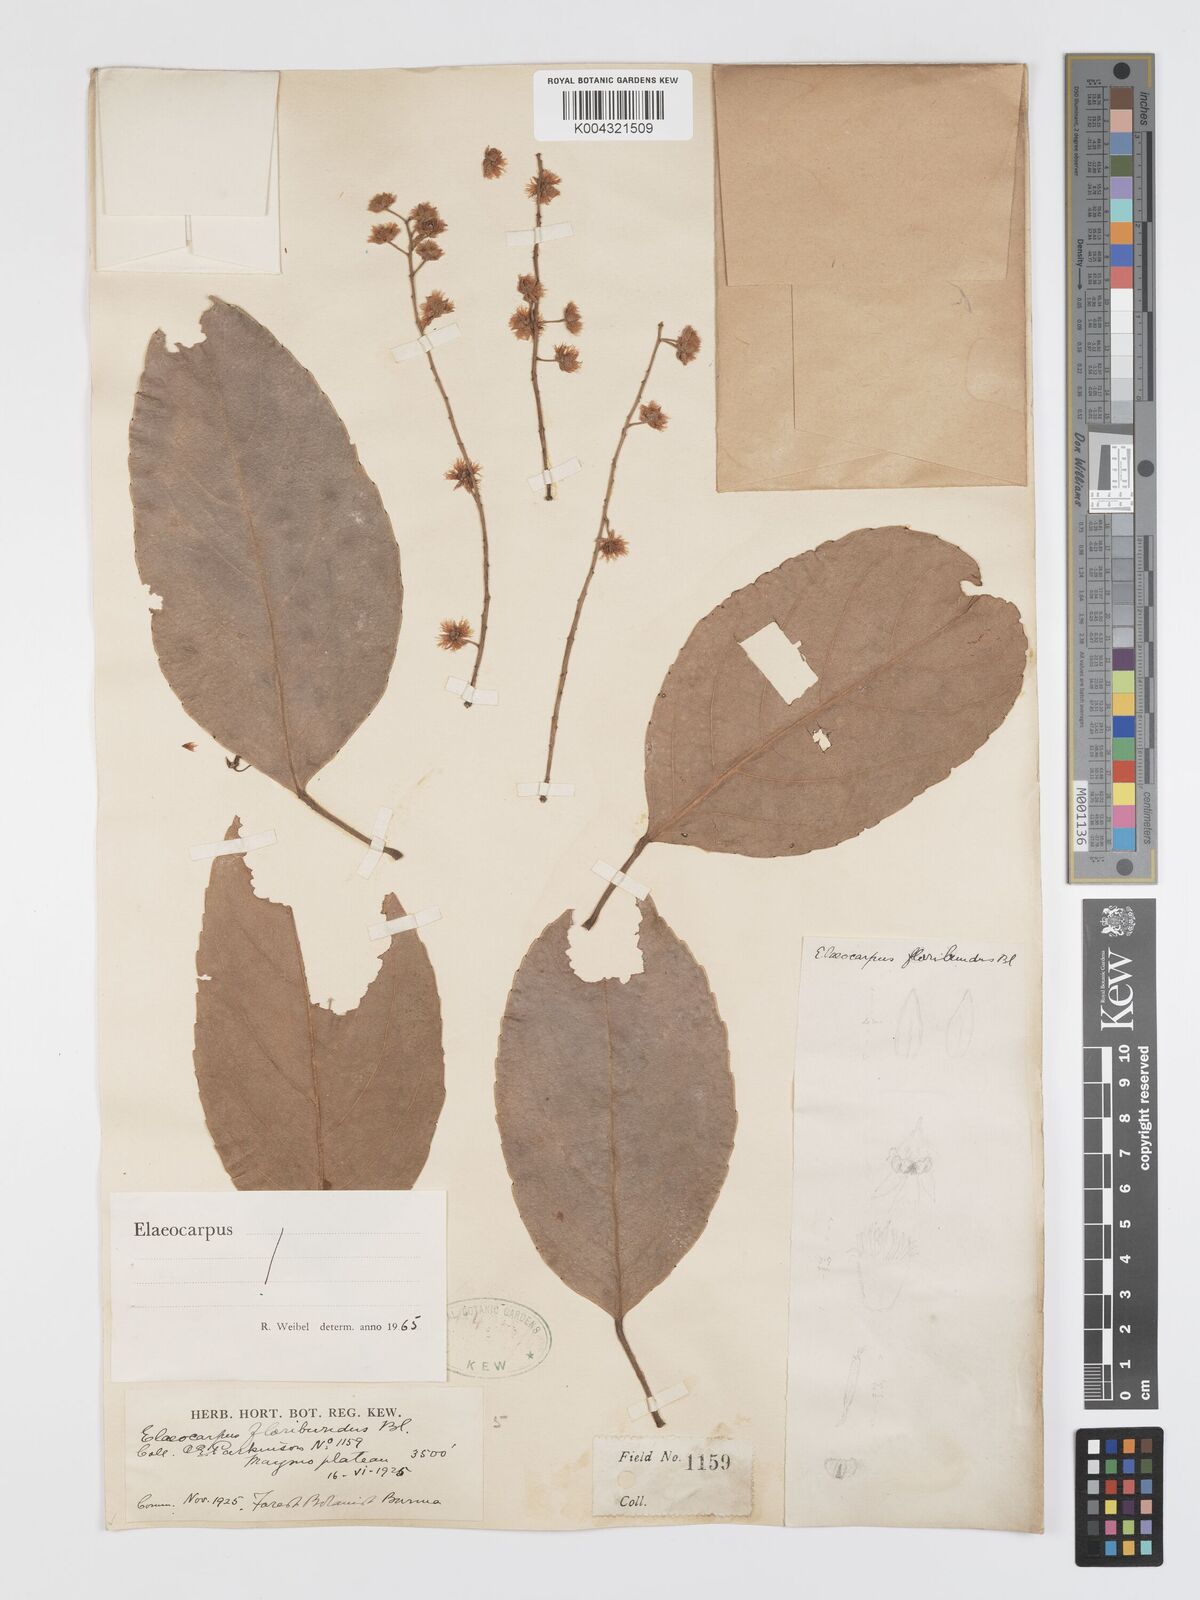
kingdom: Plantae
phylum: Tracheophyta
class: Magnoliopsida
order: Oxalidales
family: Elaeocarpaceae
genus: Elaeocarpus
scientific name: Elaeocarpus floribundus
